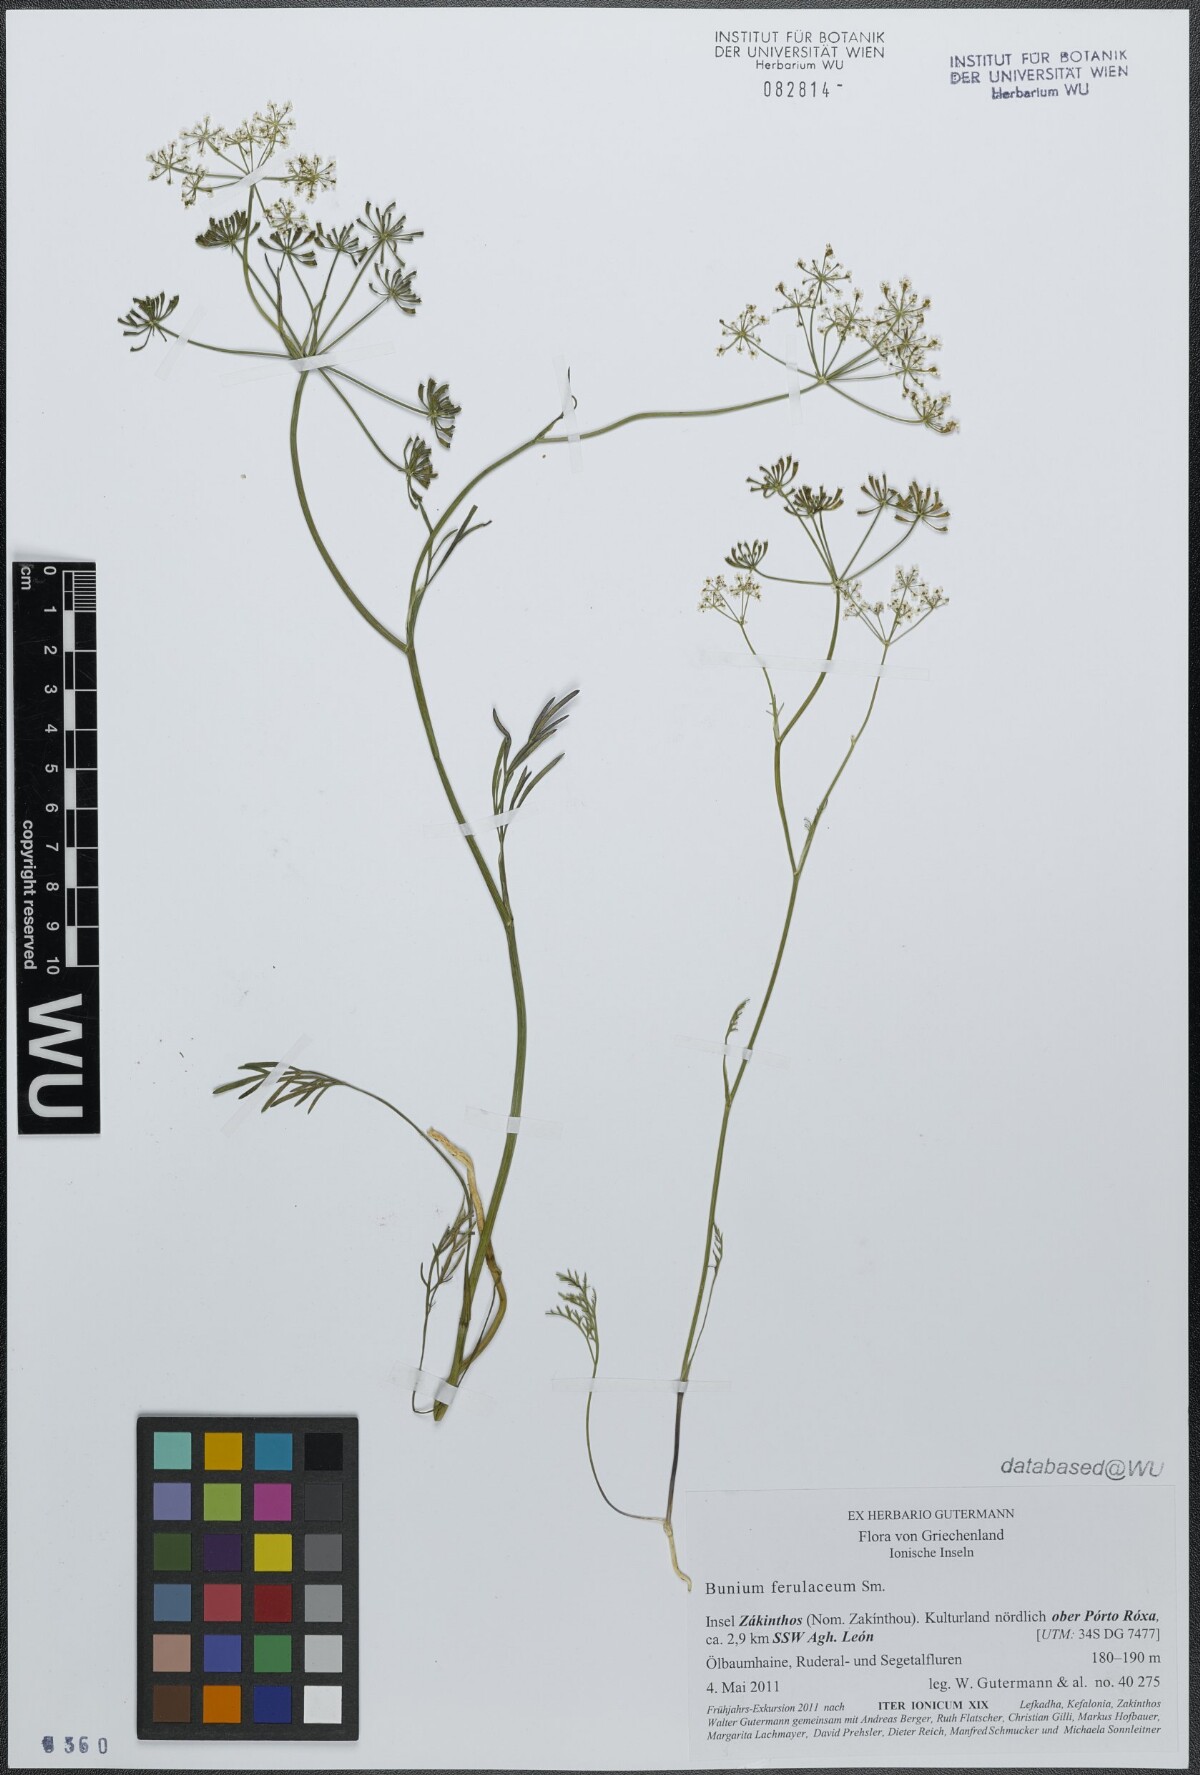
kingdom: Plantae
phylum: Tracheophyta
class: Magnoliopsida
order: Apiales
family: Apiaceae
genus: Bunium
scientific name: Bunium ferulaceum
